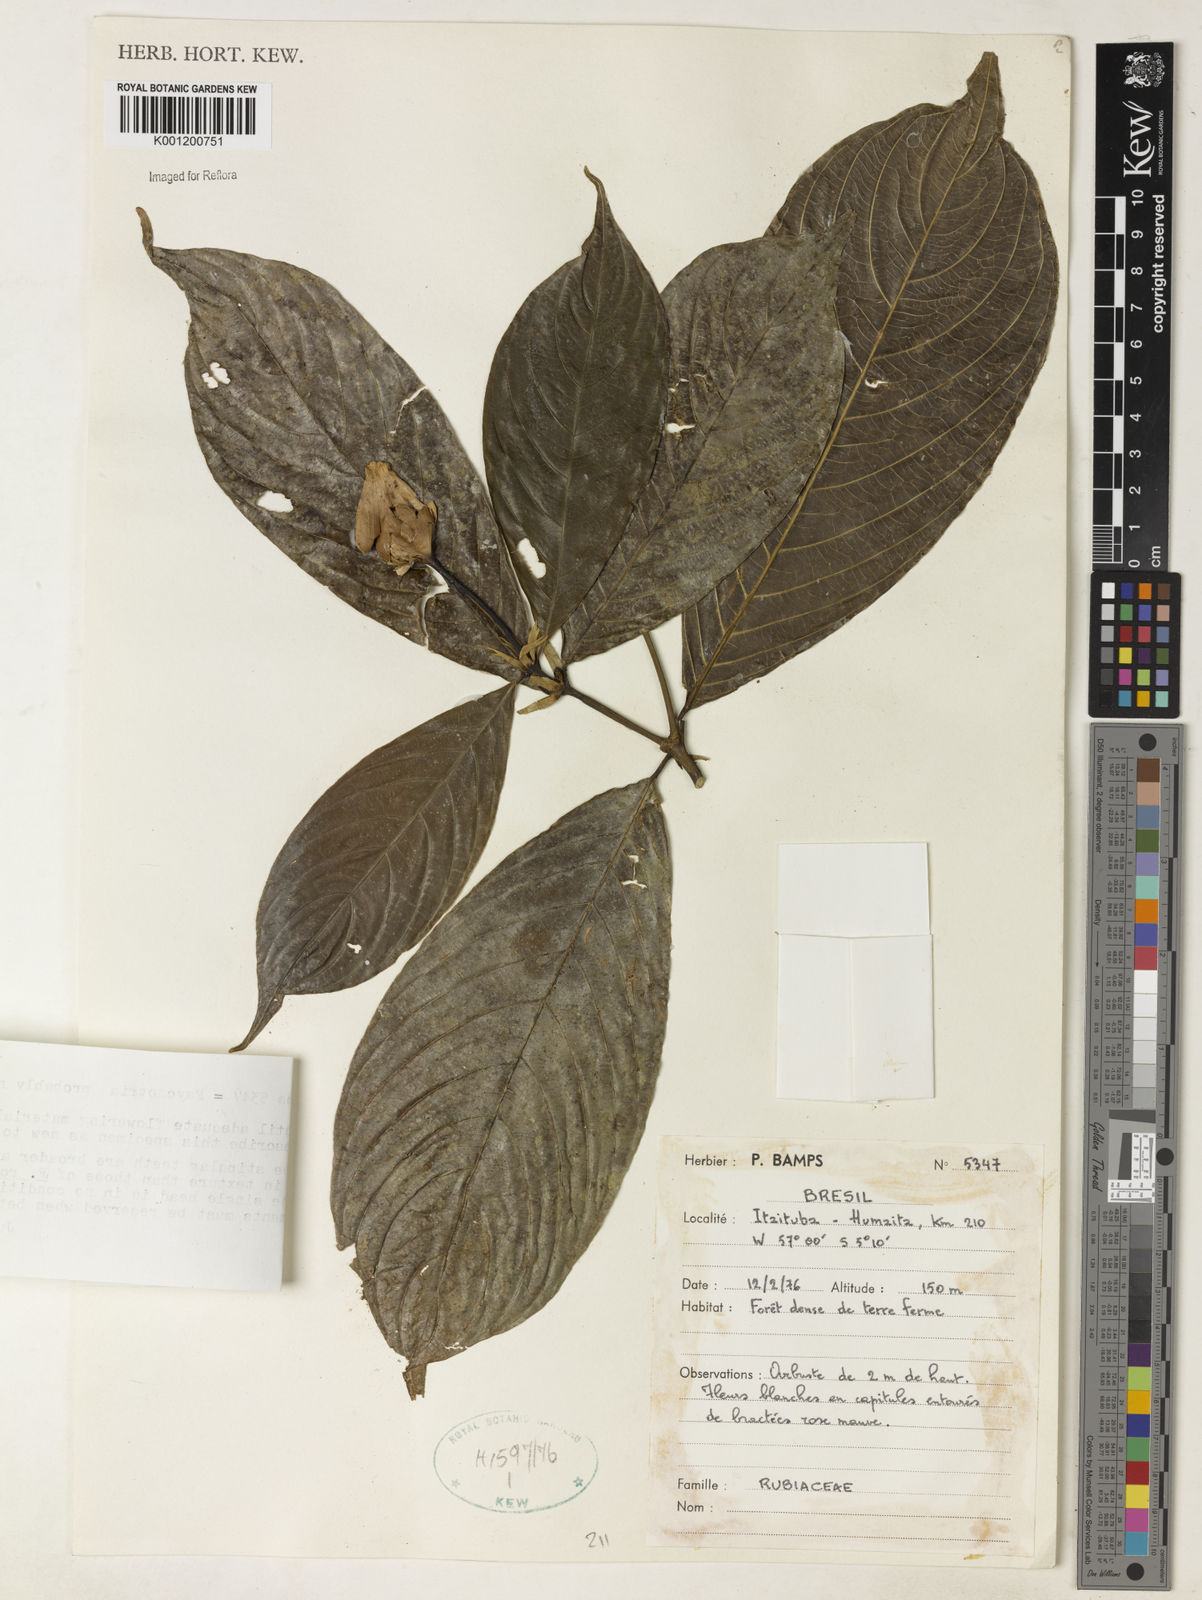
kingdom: Plantae
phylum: Tracheophyta
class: Magnoliopsida
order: Gentianales
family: Rubiaceae
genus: Psychotria
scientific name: Psychotria
